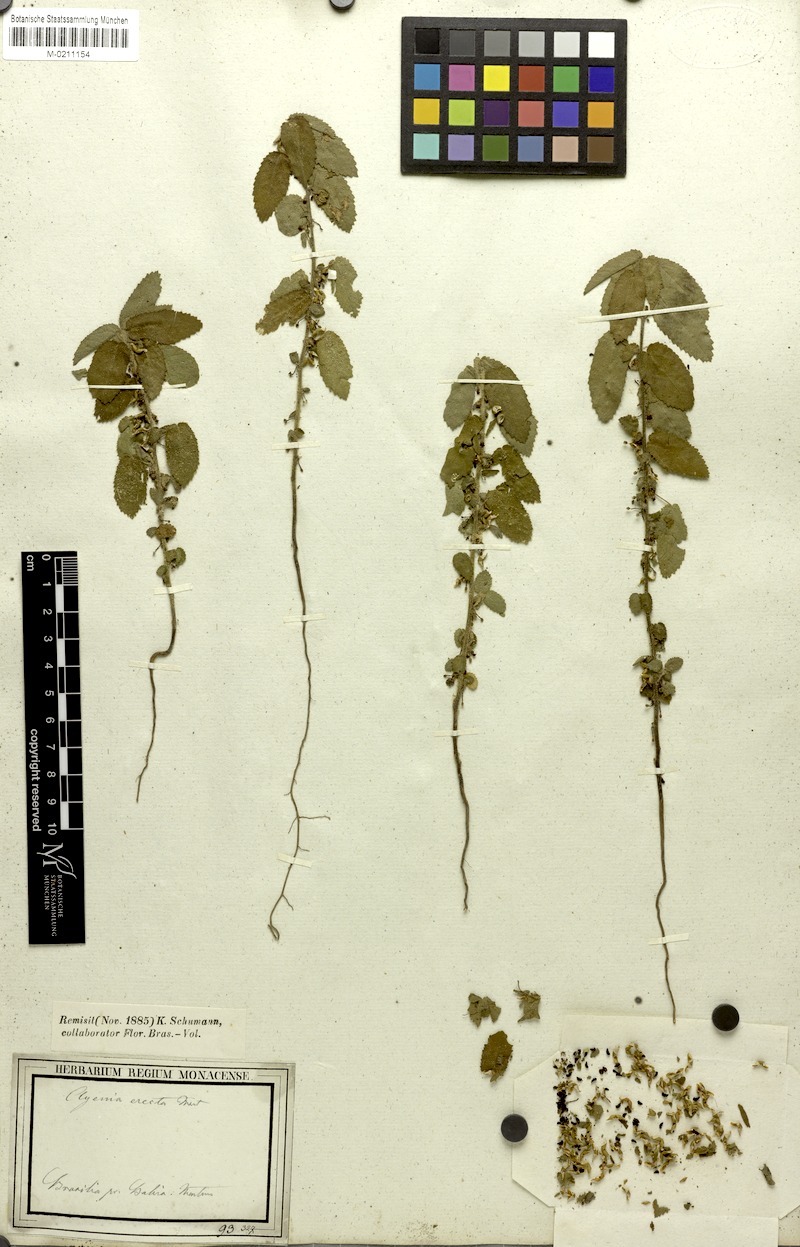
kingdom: Plantae
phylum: Tracheophyta
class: Magnoliopsida
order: Malvales
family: Malvaceae
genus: Ayenia
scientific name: Ayenia erecta
